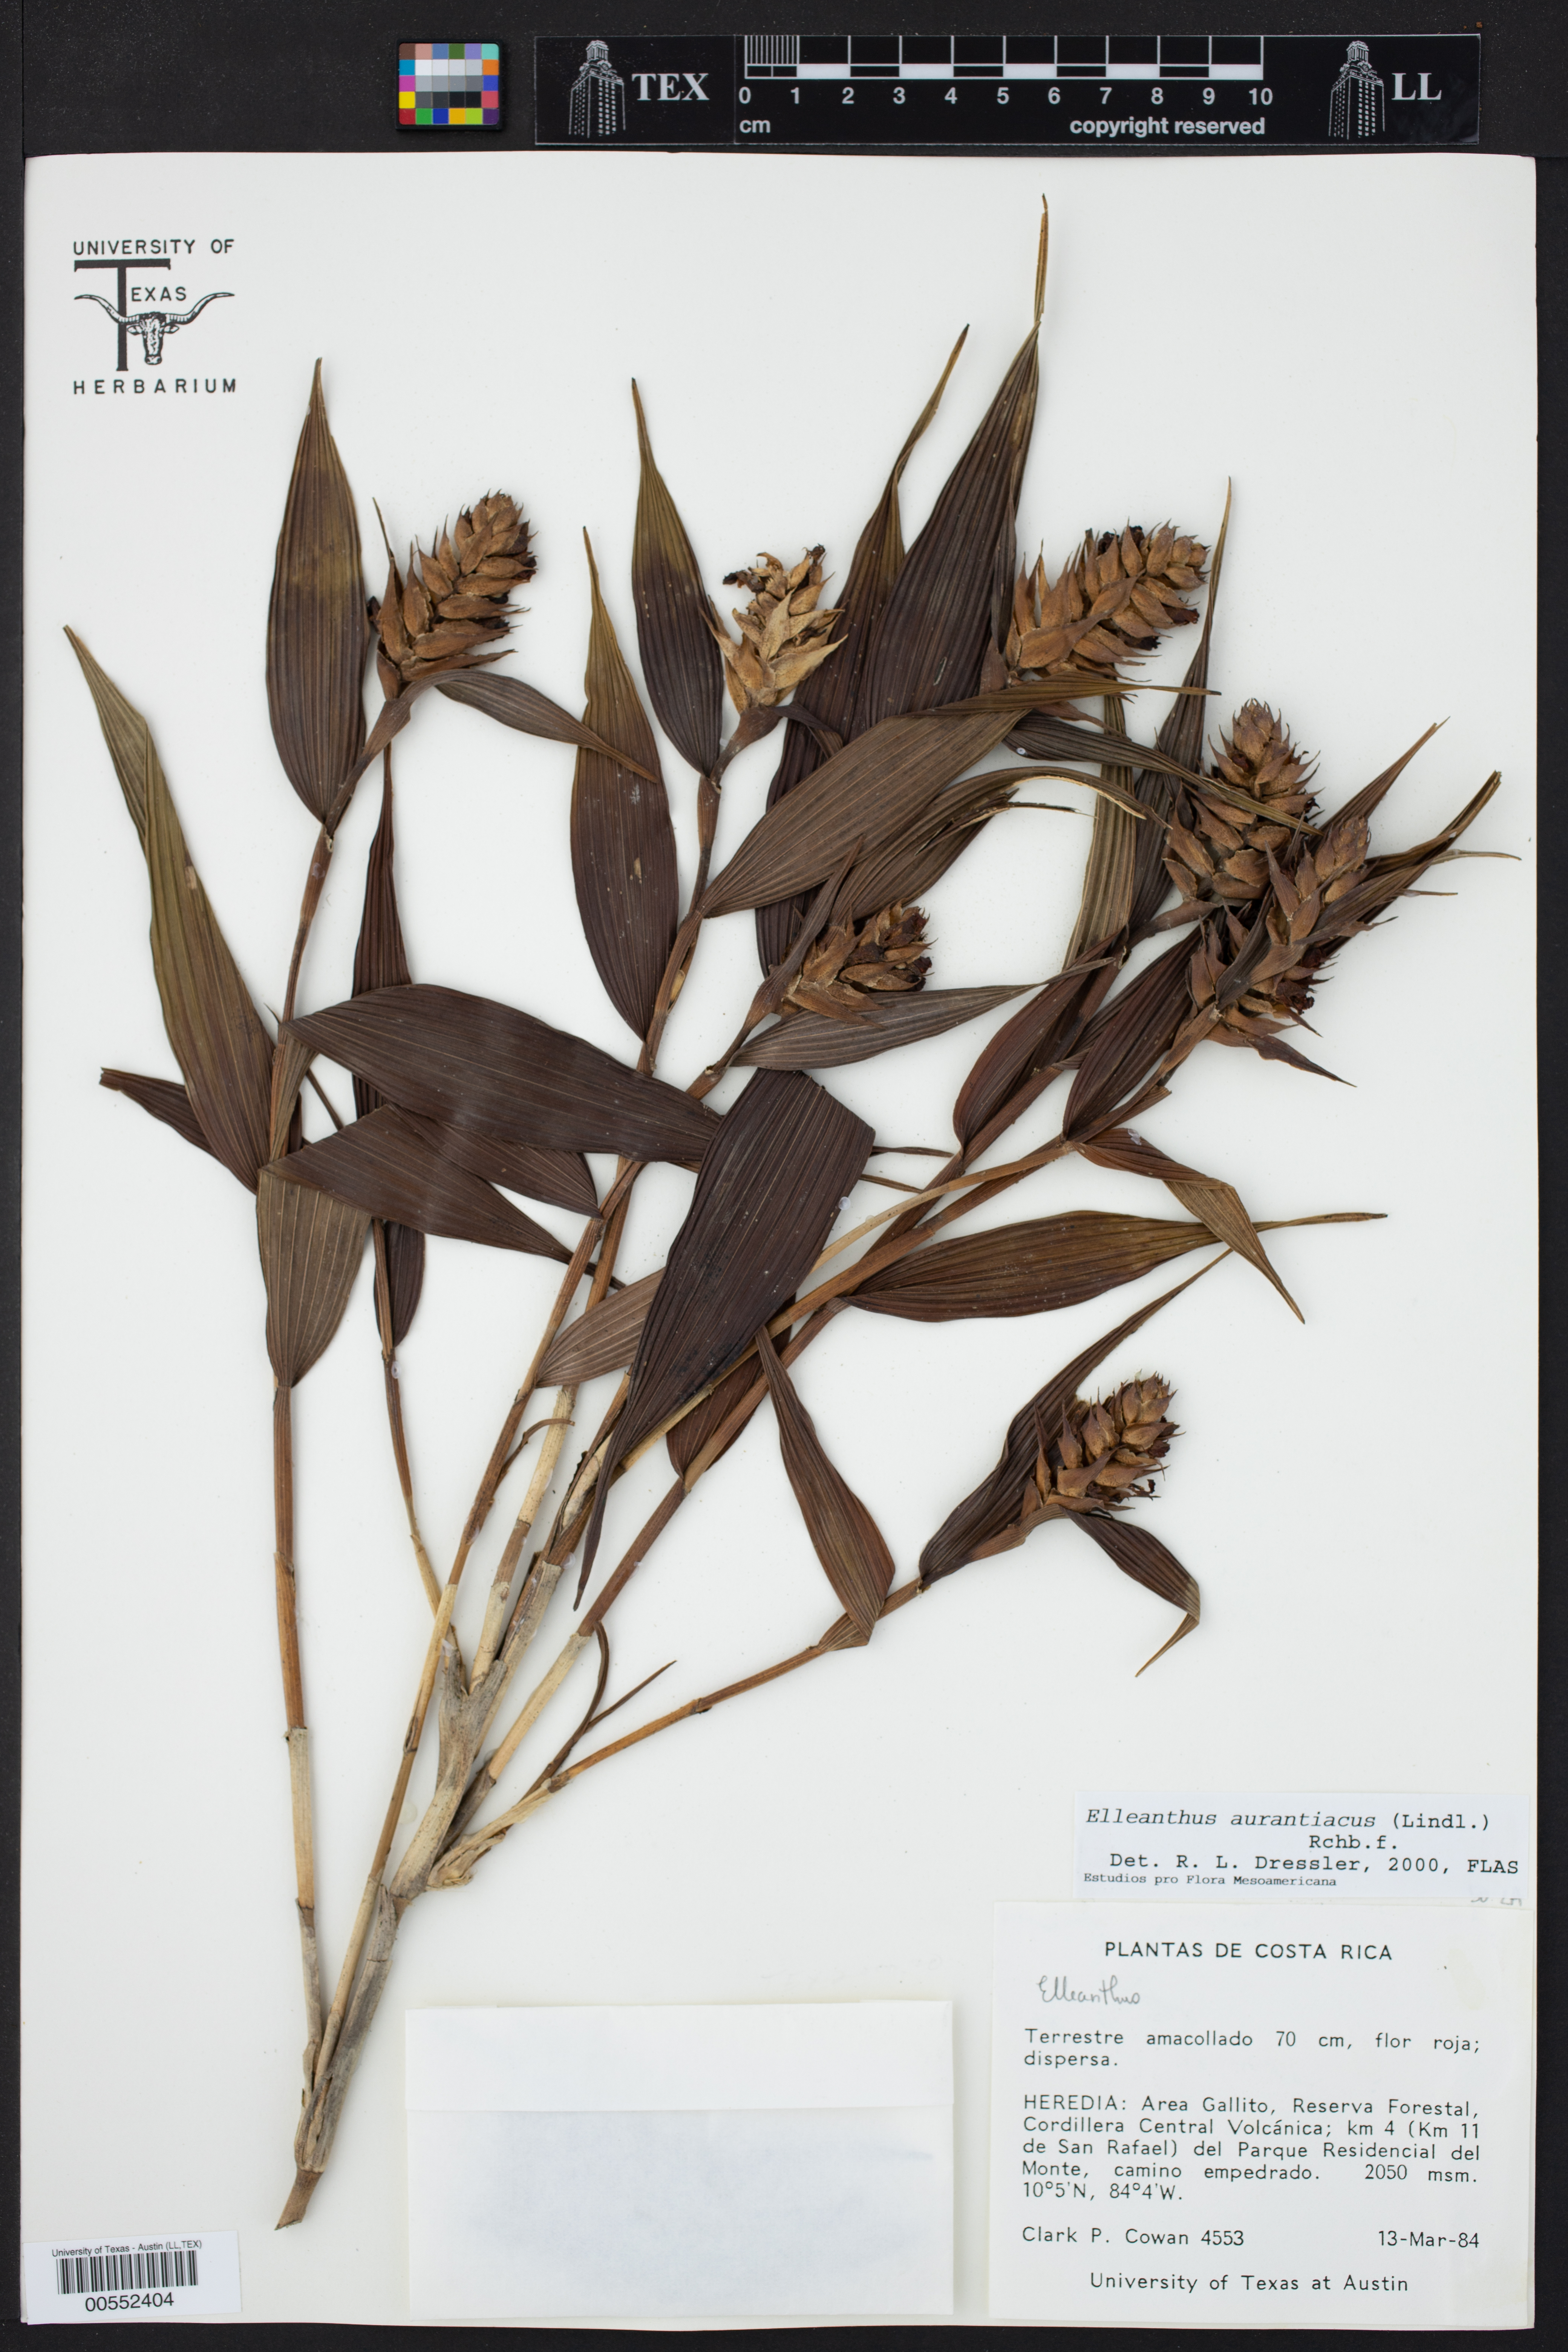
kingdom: Plantae
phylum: Tracheophyta
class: Liliopsida
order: Asparagales
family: Orchidaceae
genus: Elleanthus
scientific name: Elleanthus aurantiacus
